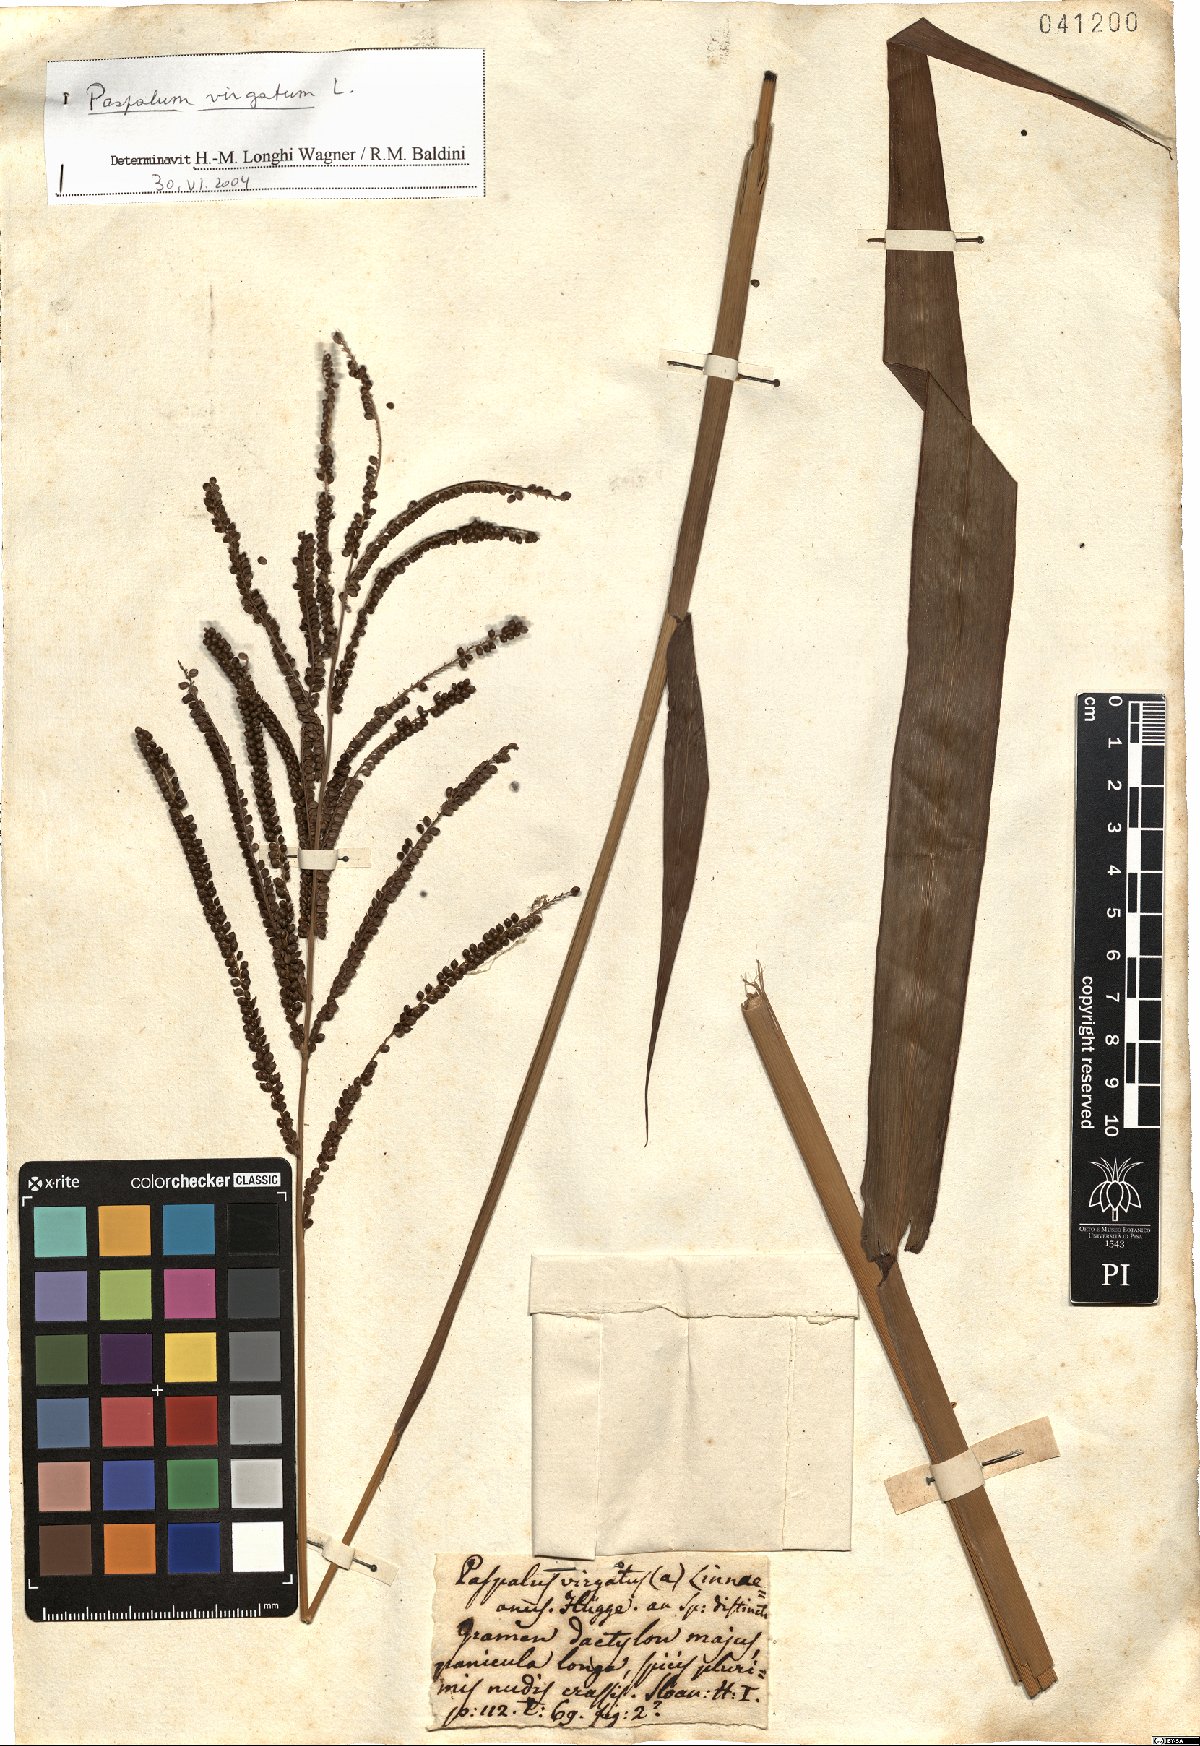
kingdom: Plantae
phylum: Tracheophyta
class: Liliopsida
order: Poales
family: Poaceae
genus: Paspalum
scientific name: Paspalum virgatum
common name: Talquezal
